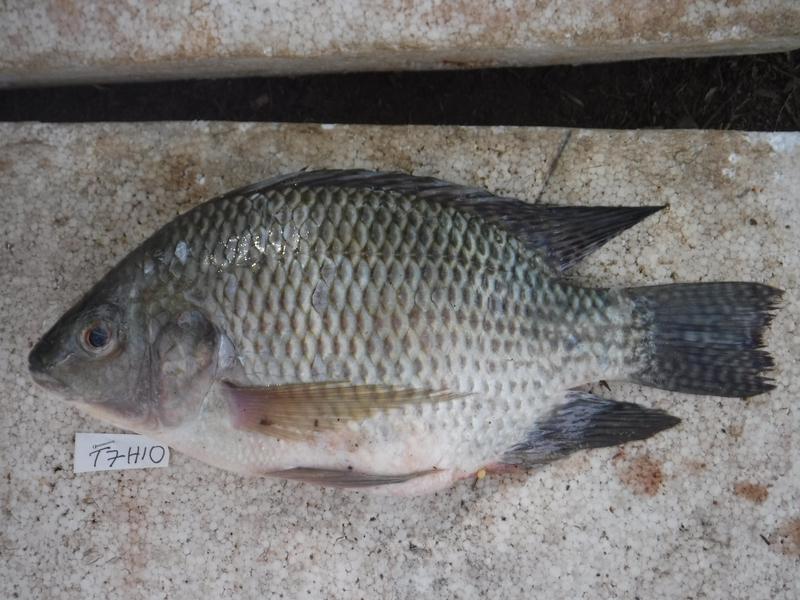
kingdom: Animalia
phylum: Chordata
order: Perciformes
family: Cichlidae
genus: Oreochromis
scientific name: Oreochromis niloticus
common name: Nile tilapia
